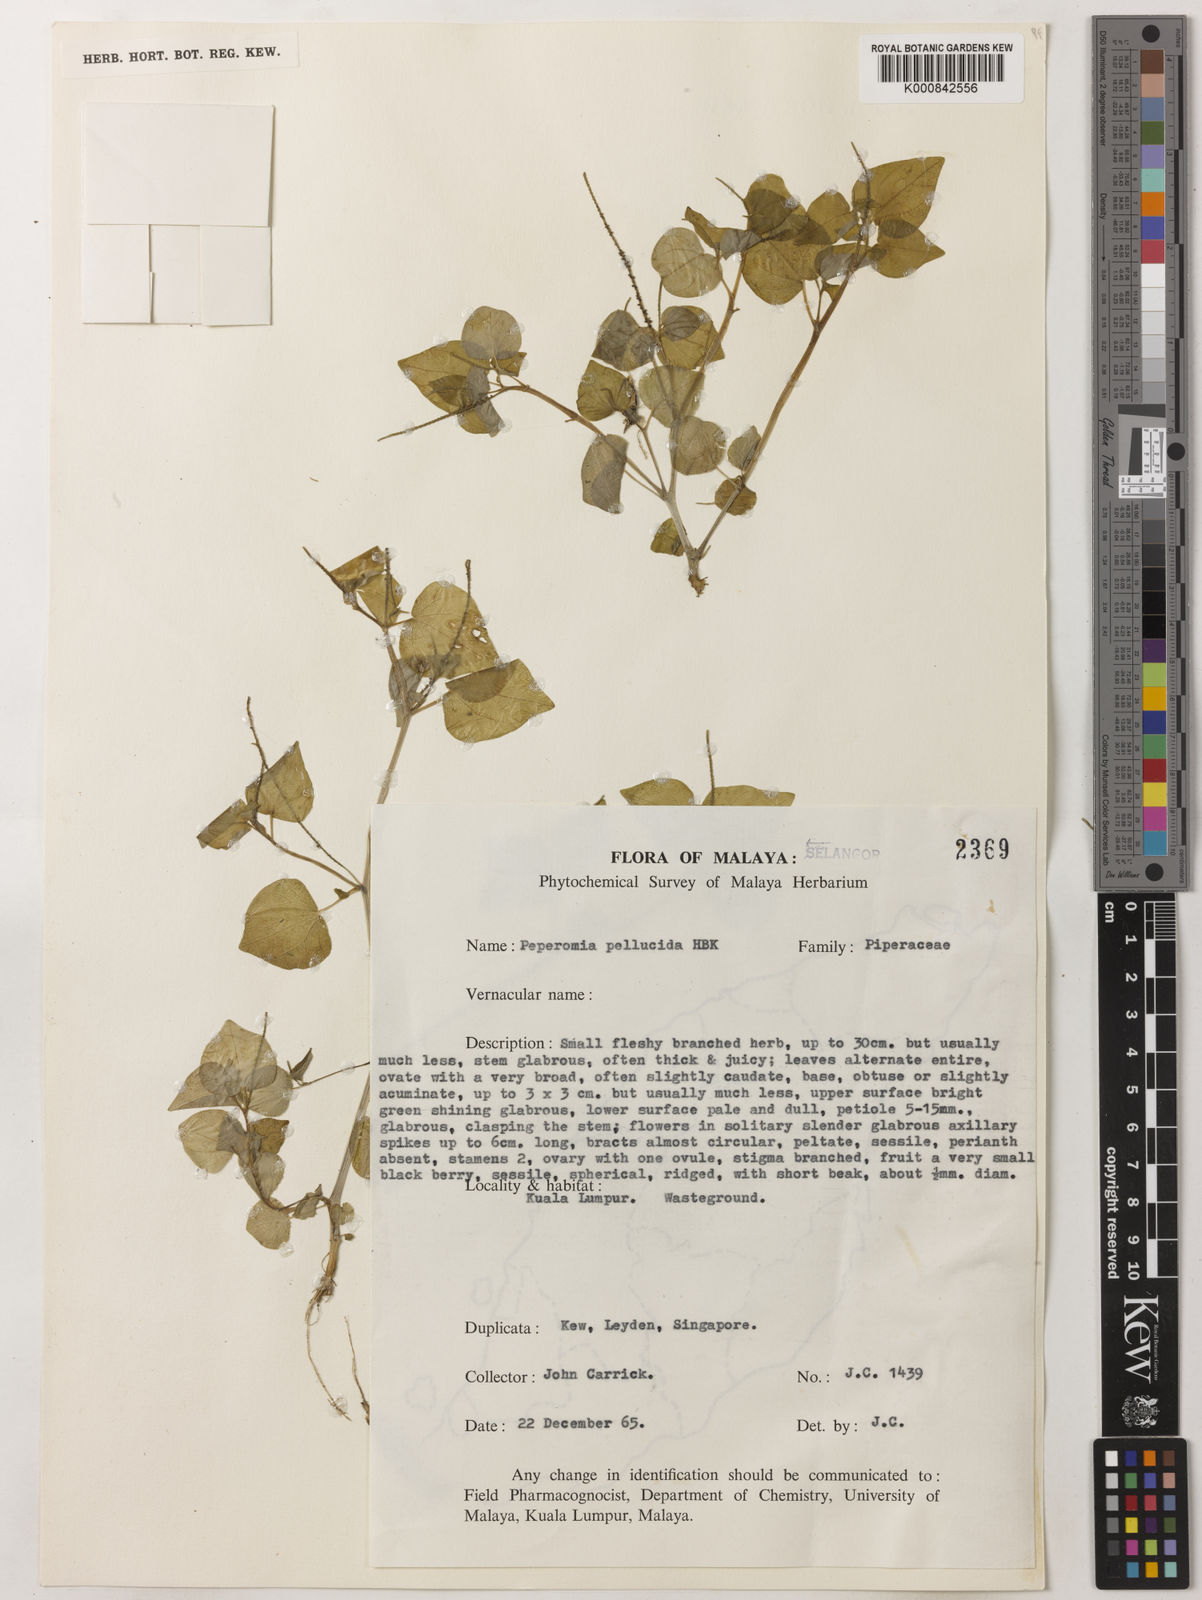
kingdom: Plantae
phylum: Tracheophyta
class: Magnoliopsida
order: Piperales
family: Piperaceae
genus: Peperomia
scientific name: Peperomia pellucida
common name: Man to man
